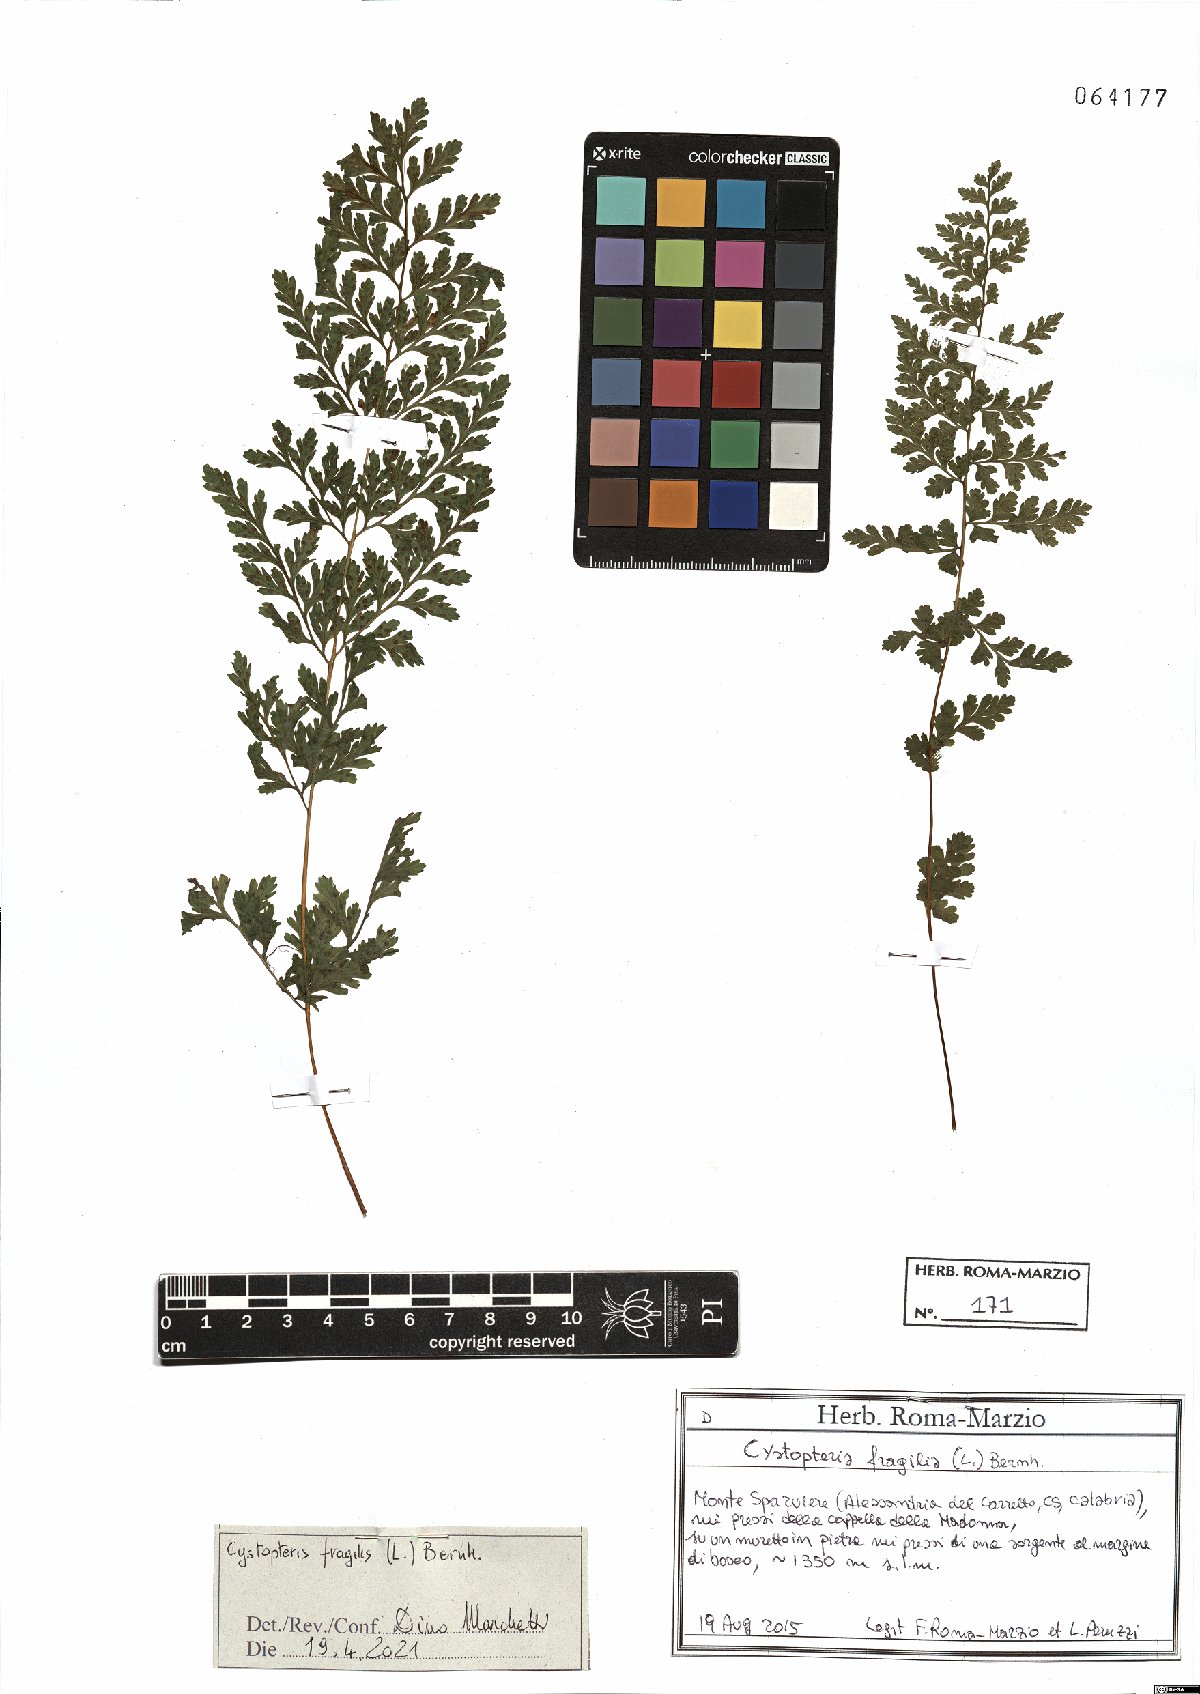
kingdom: Plantae
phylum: Tracheophyta
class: Polypodiopsida
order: Polypodiales
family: Cystopteridaceae
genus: Cystopteris
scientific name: Cystopteris fragilis
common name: Brittle bladder fern
